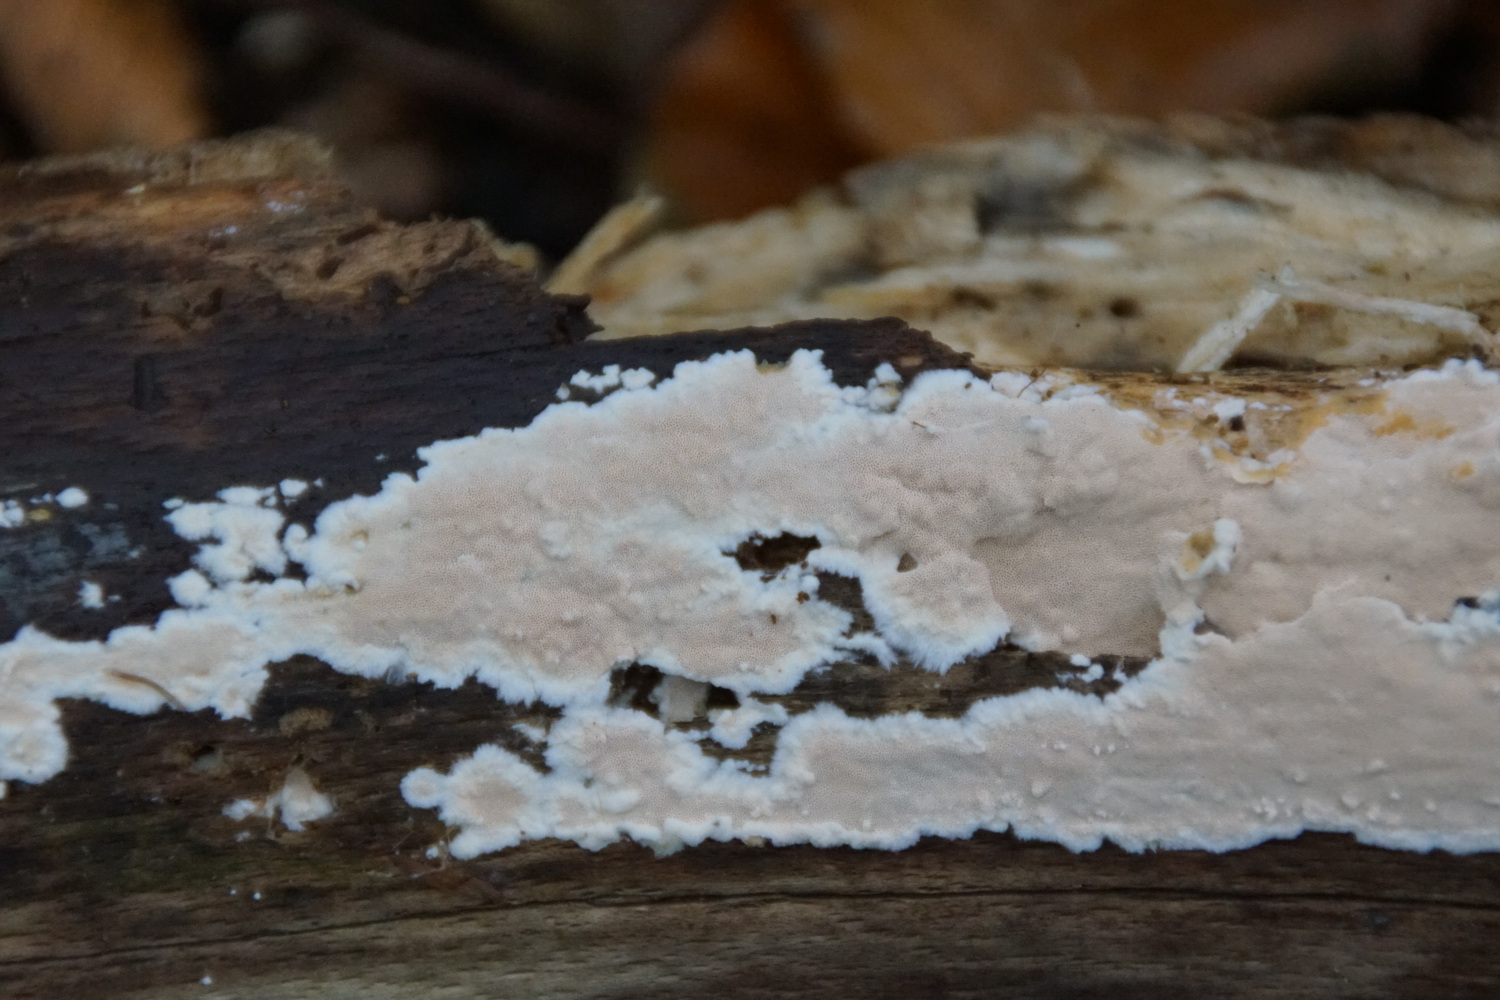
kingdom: Fungi
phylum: Basidiomycota
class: Agaricomycetes
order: Polyporales
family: Steccherinaceae
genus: Junghuhnia
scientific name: Junghuhnia nitida
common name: almindelig skønporesvamp
